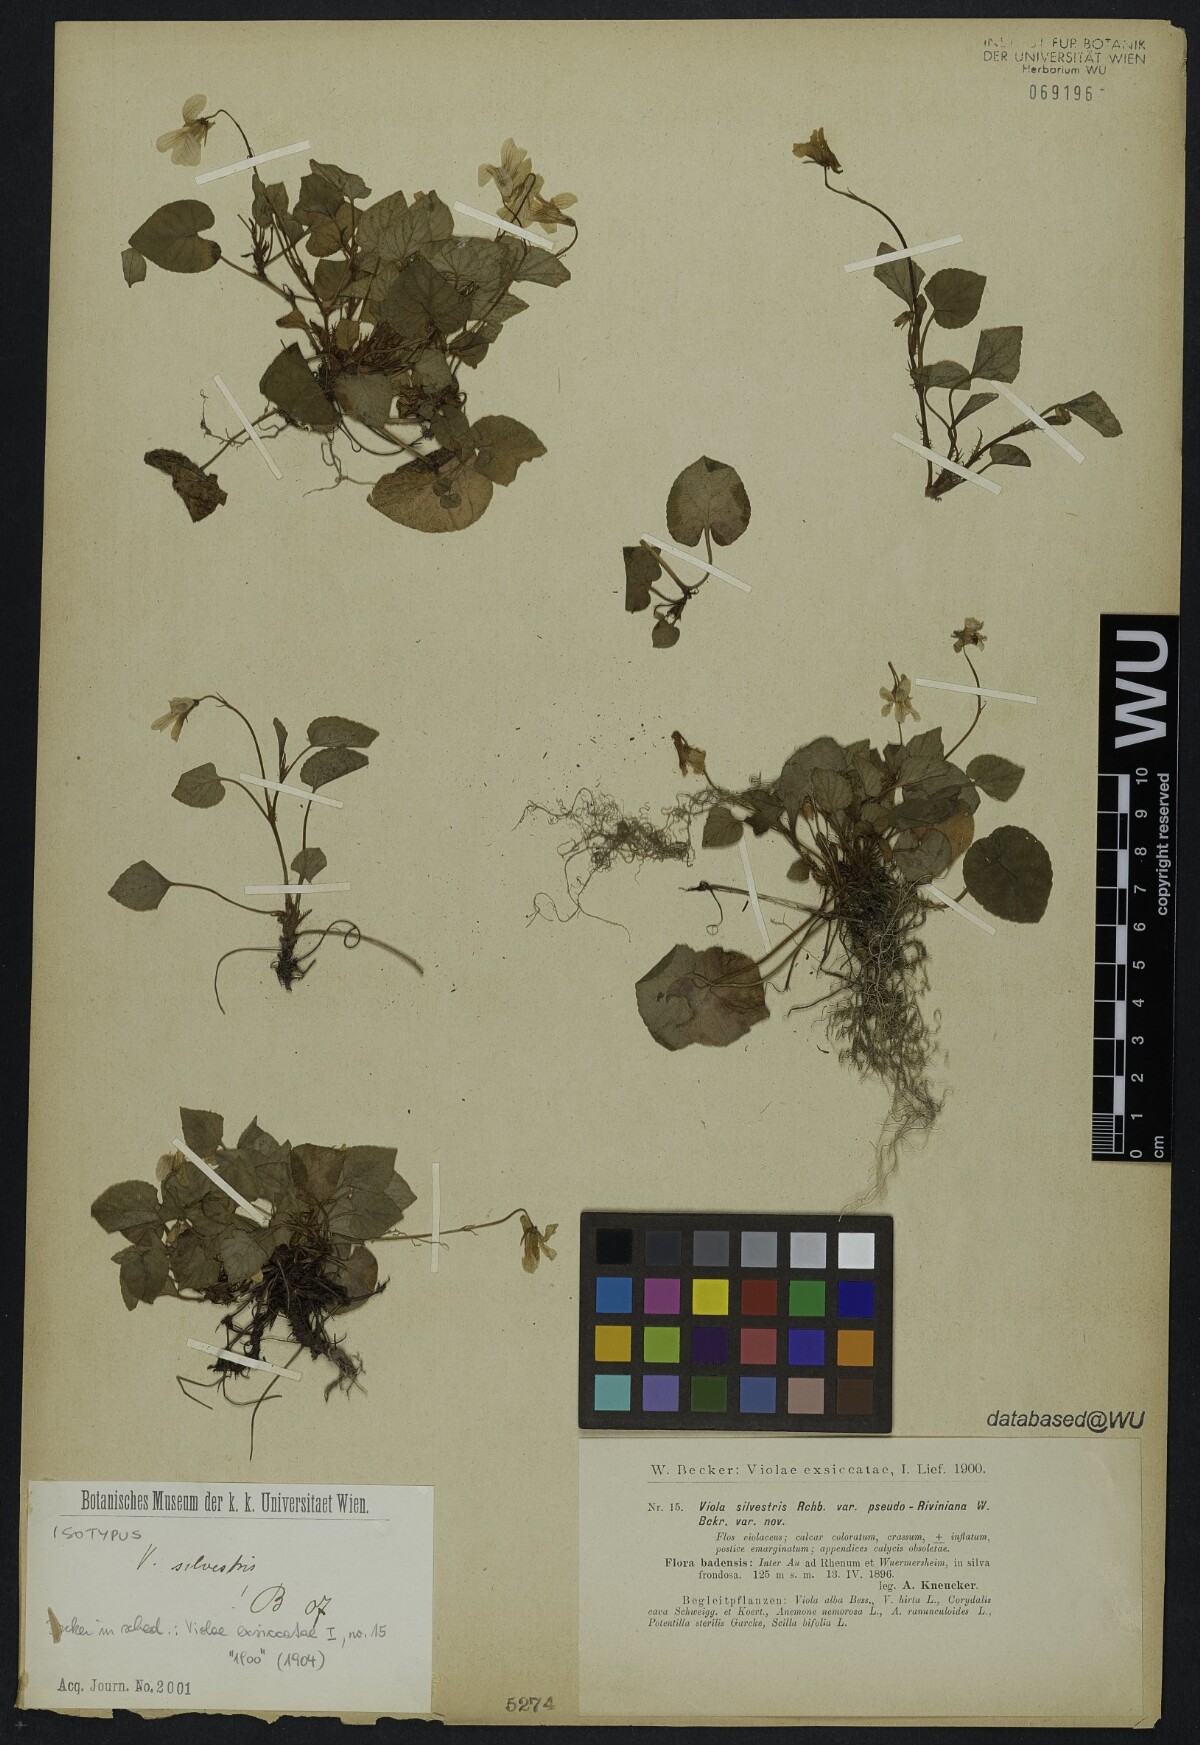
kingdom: Plantae
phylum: Tracheophyta
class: Magnoliopsida
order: Malpighiales
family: Violaceae
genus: Viola
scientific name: Viola
